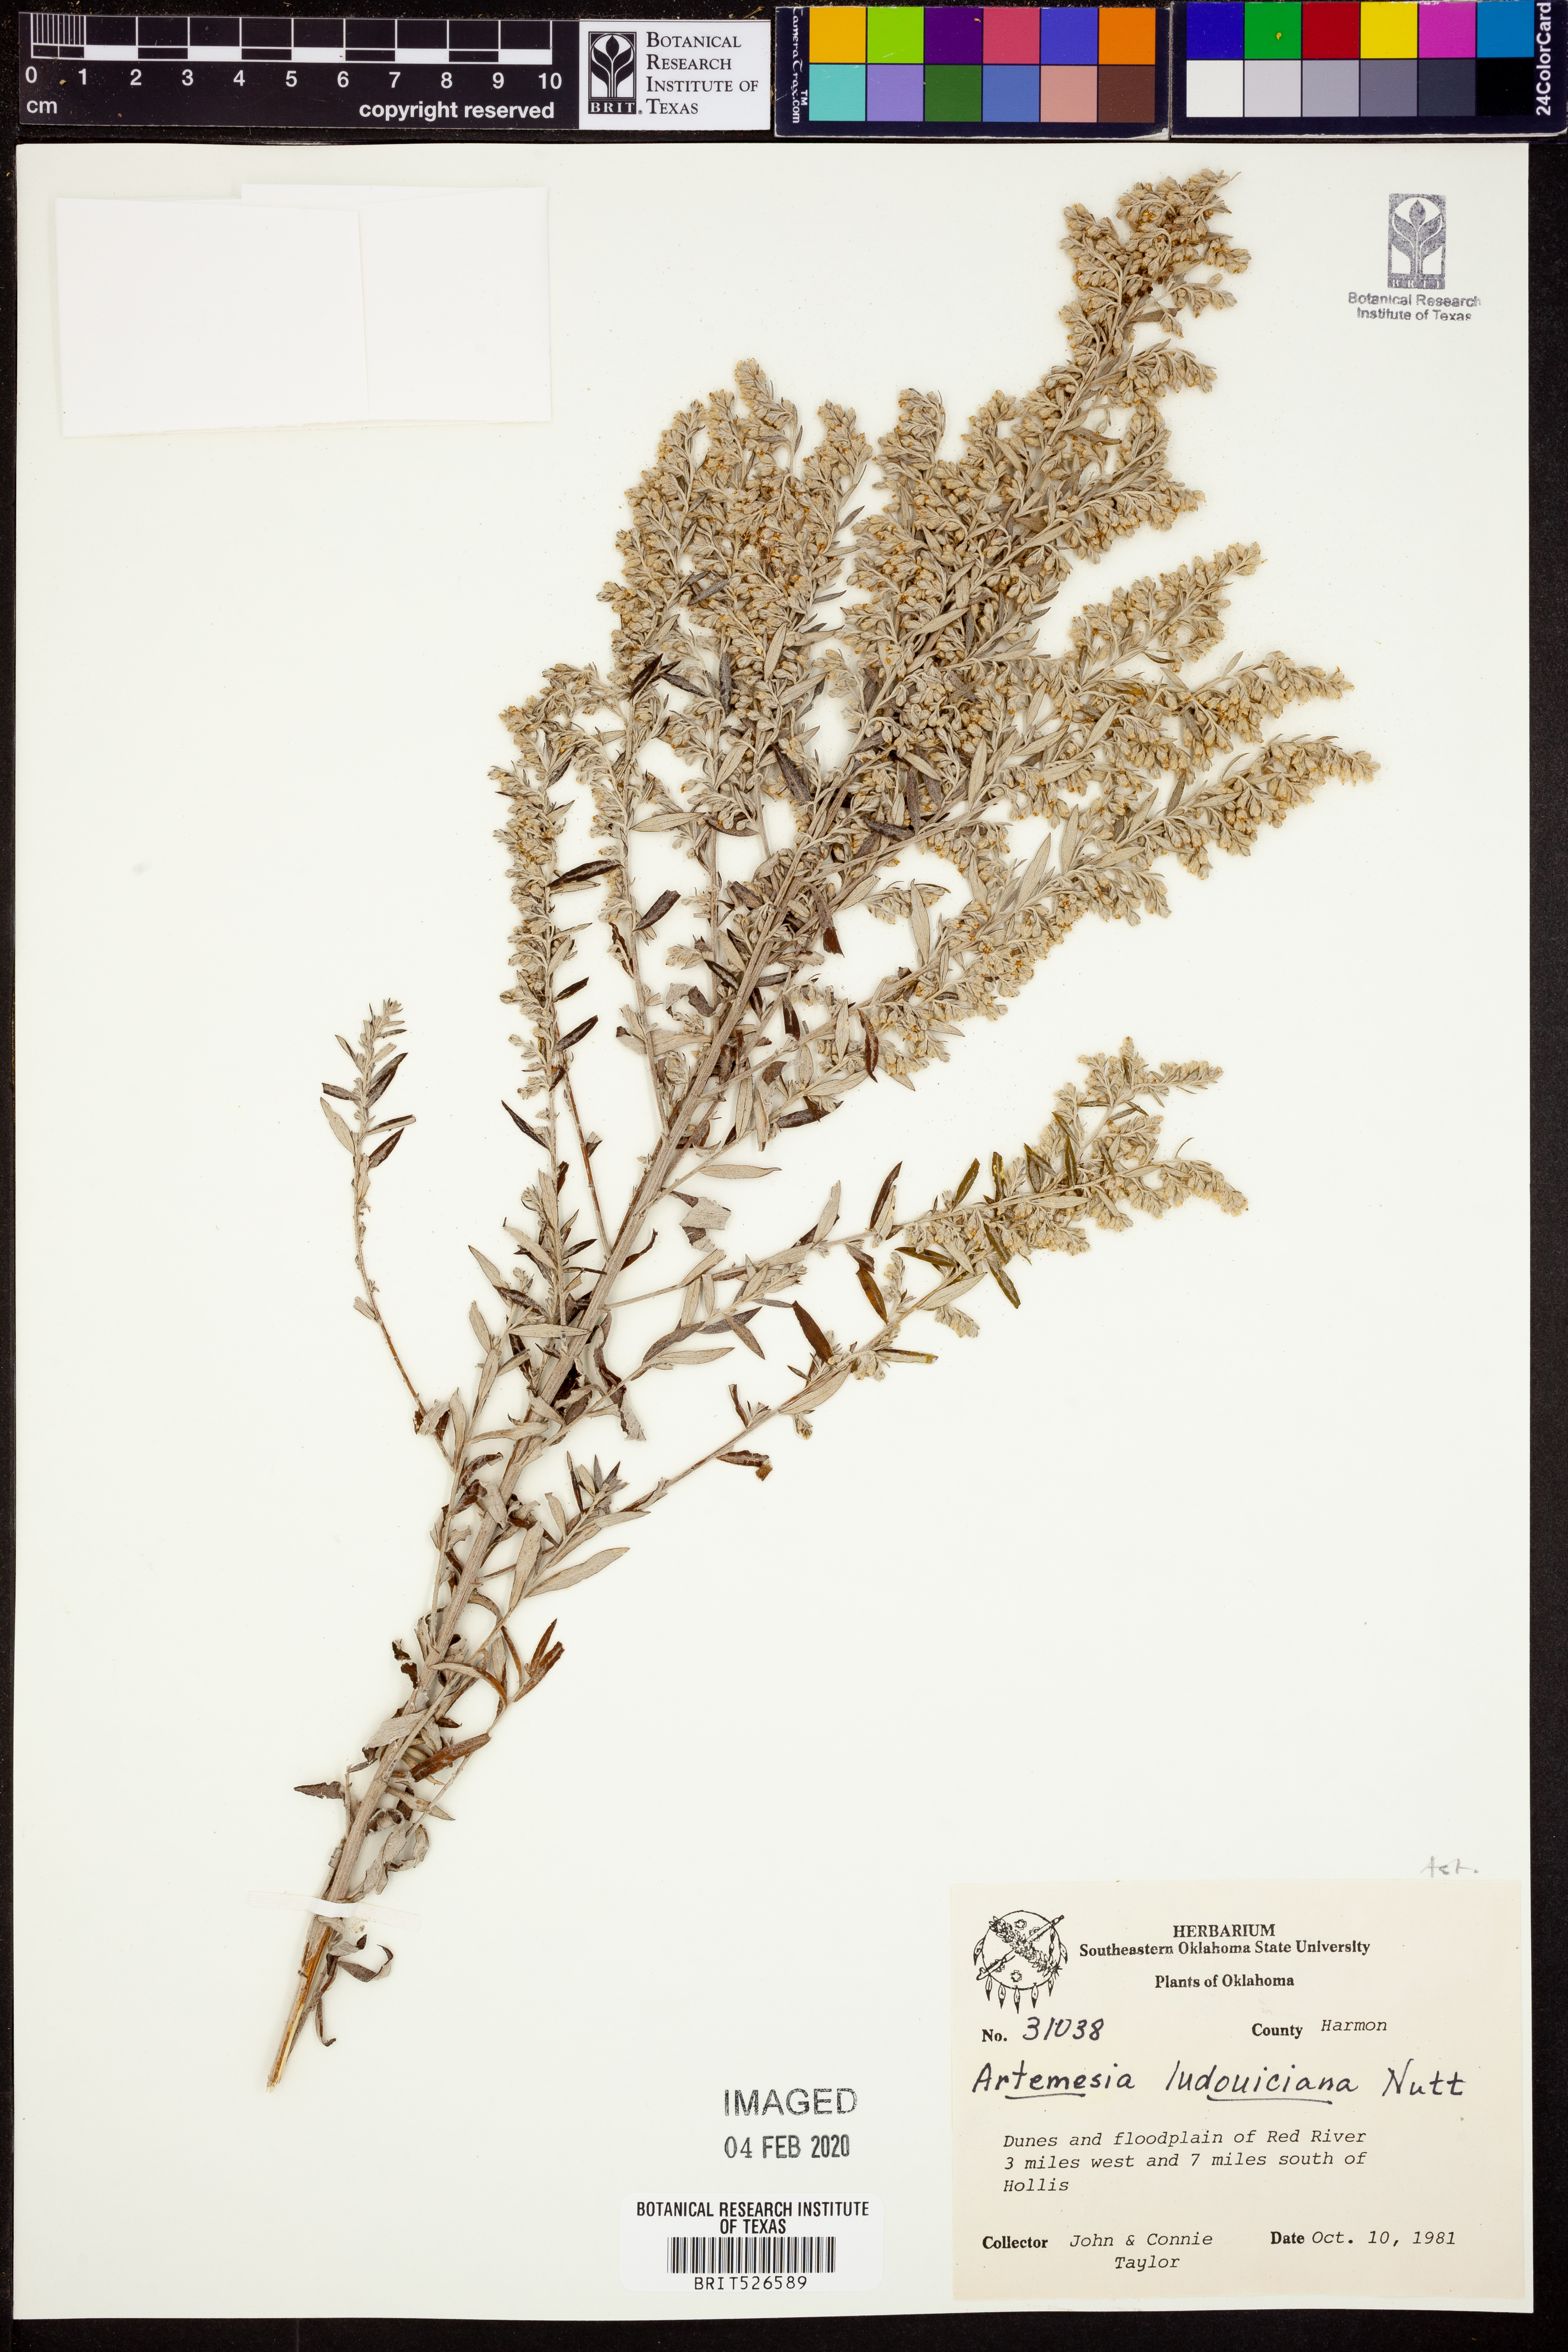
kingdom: Plantae
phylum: Tracheophyta
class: Magnoliopsida
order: Asterales
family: Asteraceae
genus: Artemisia
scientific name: Artemisia ludoviciana
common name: Western mugwort
